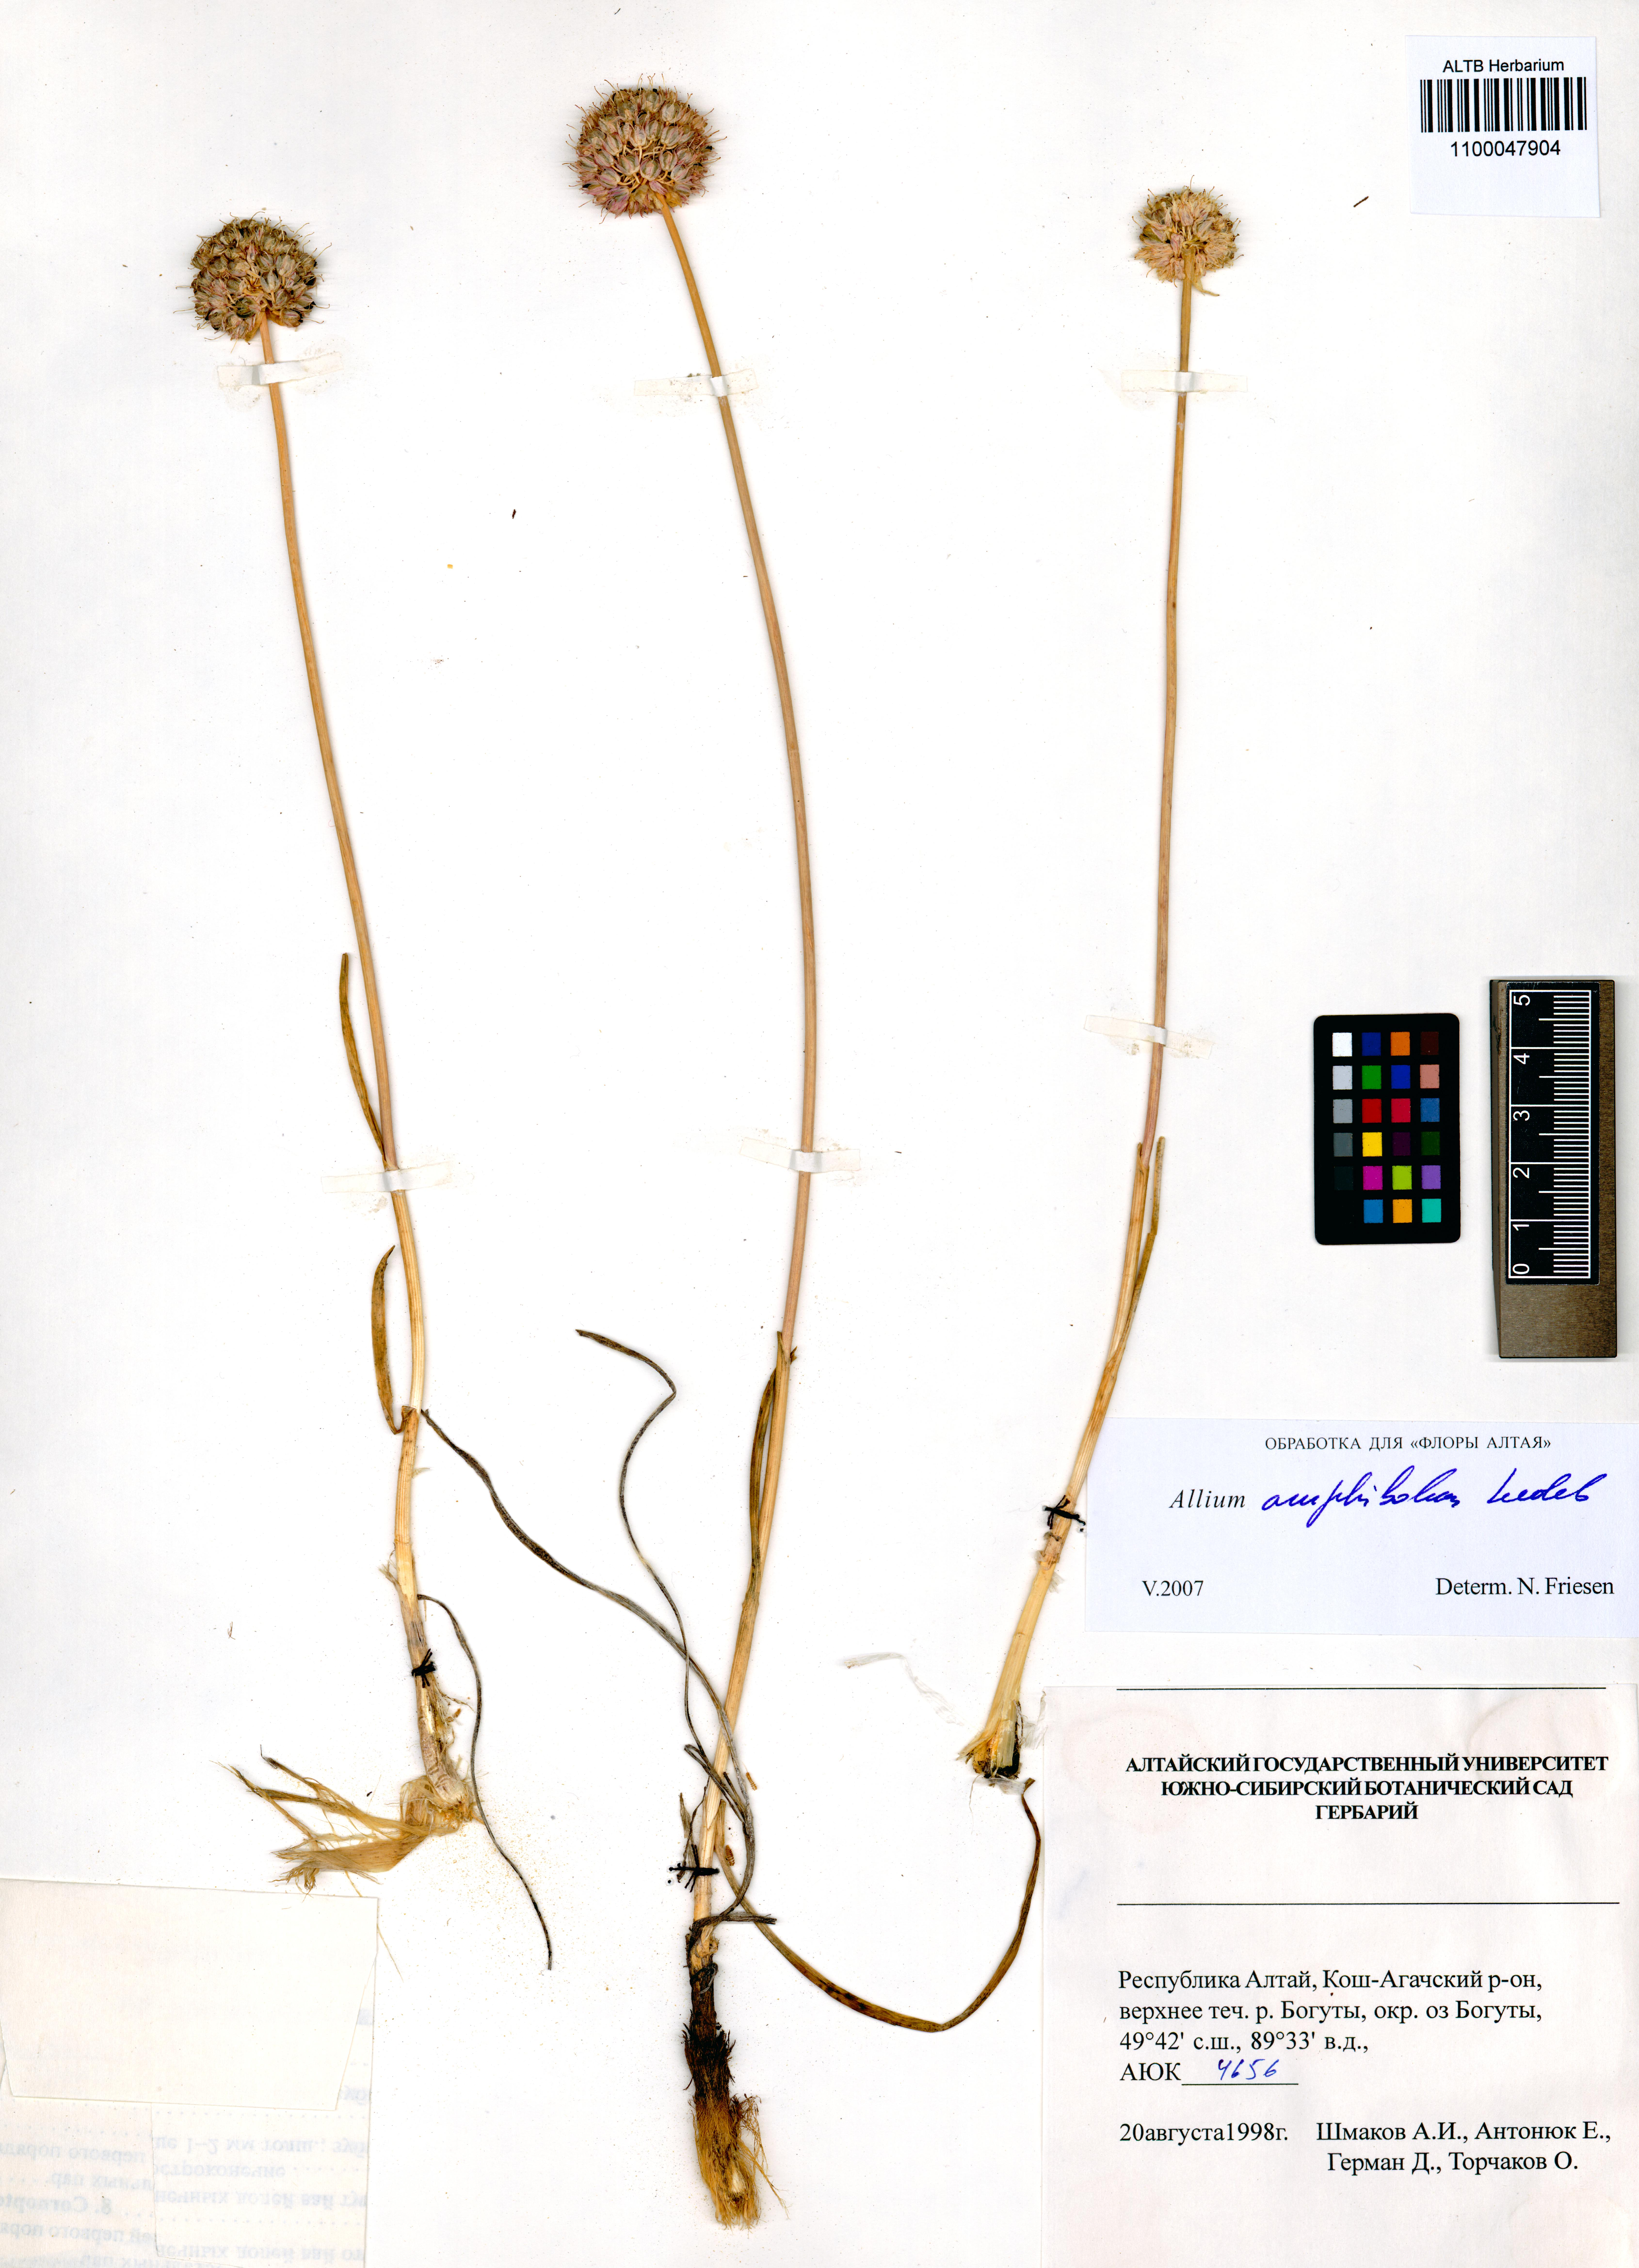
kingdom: Plantae
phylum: Tracheophyta
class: Liliopsida
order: Asparagales
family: Amaryllidaceae
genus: Allium
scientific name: Allium amphibolum
